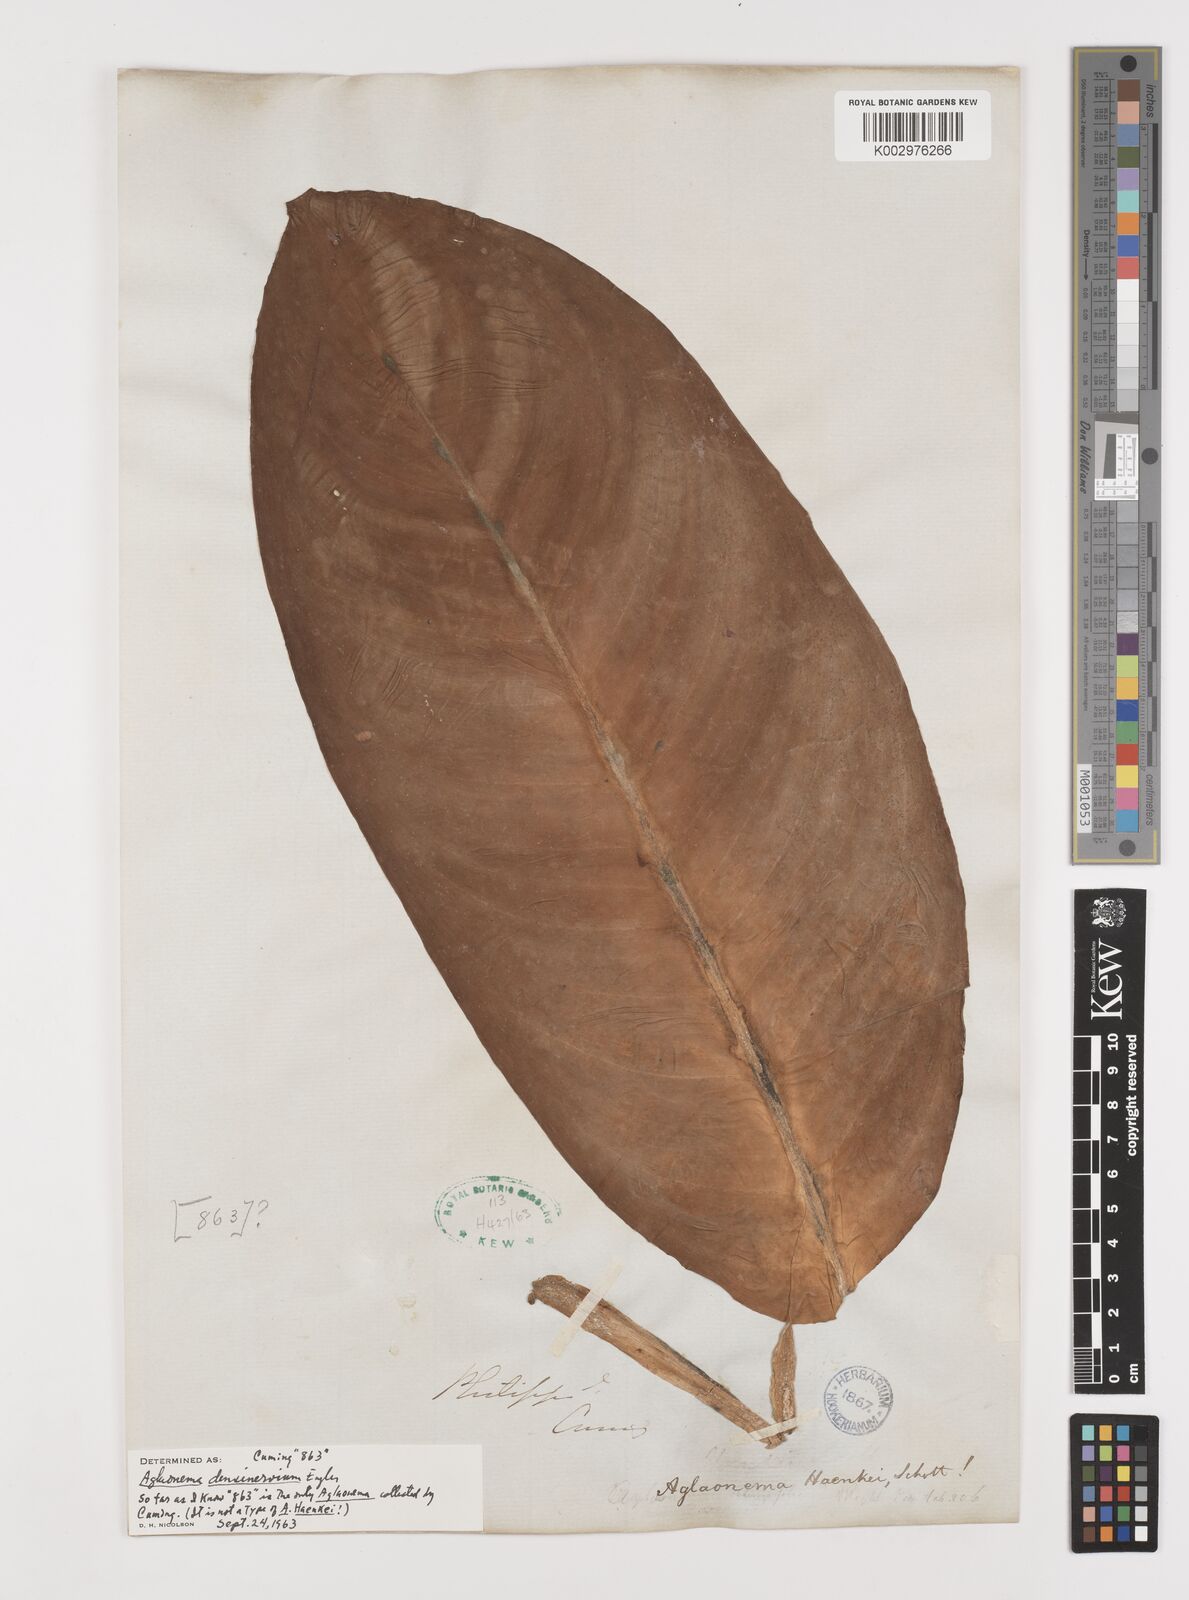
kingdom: Plantae
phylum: Tracheophyta
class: Liliopsida
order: Alismatales
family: Araceae
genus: Aglaonema
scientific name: Aglaonema densinervium
